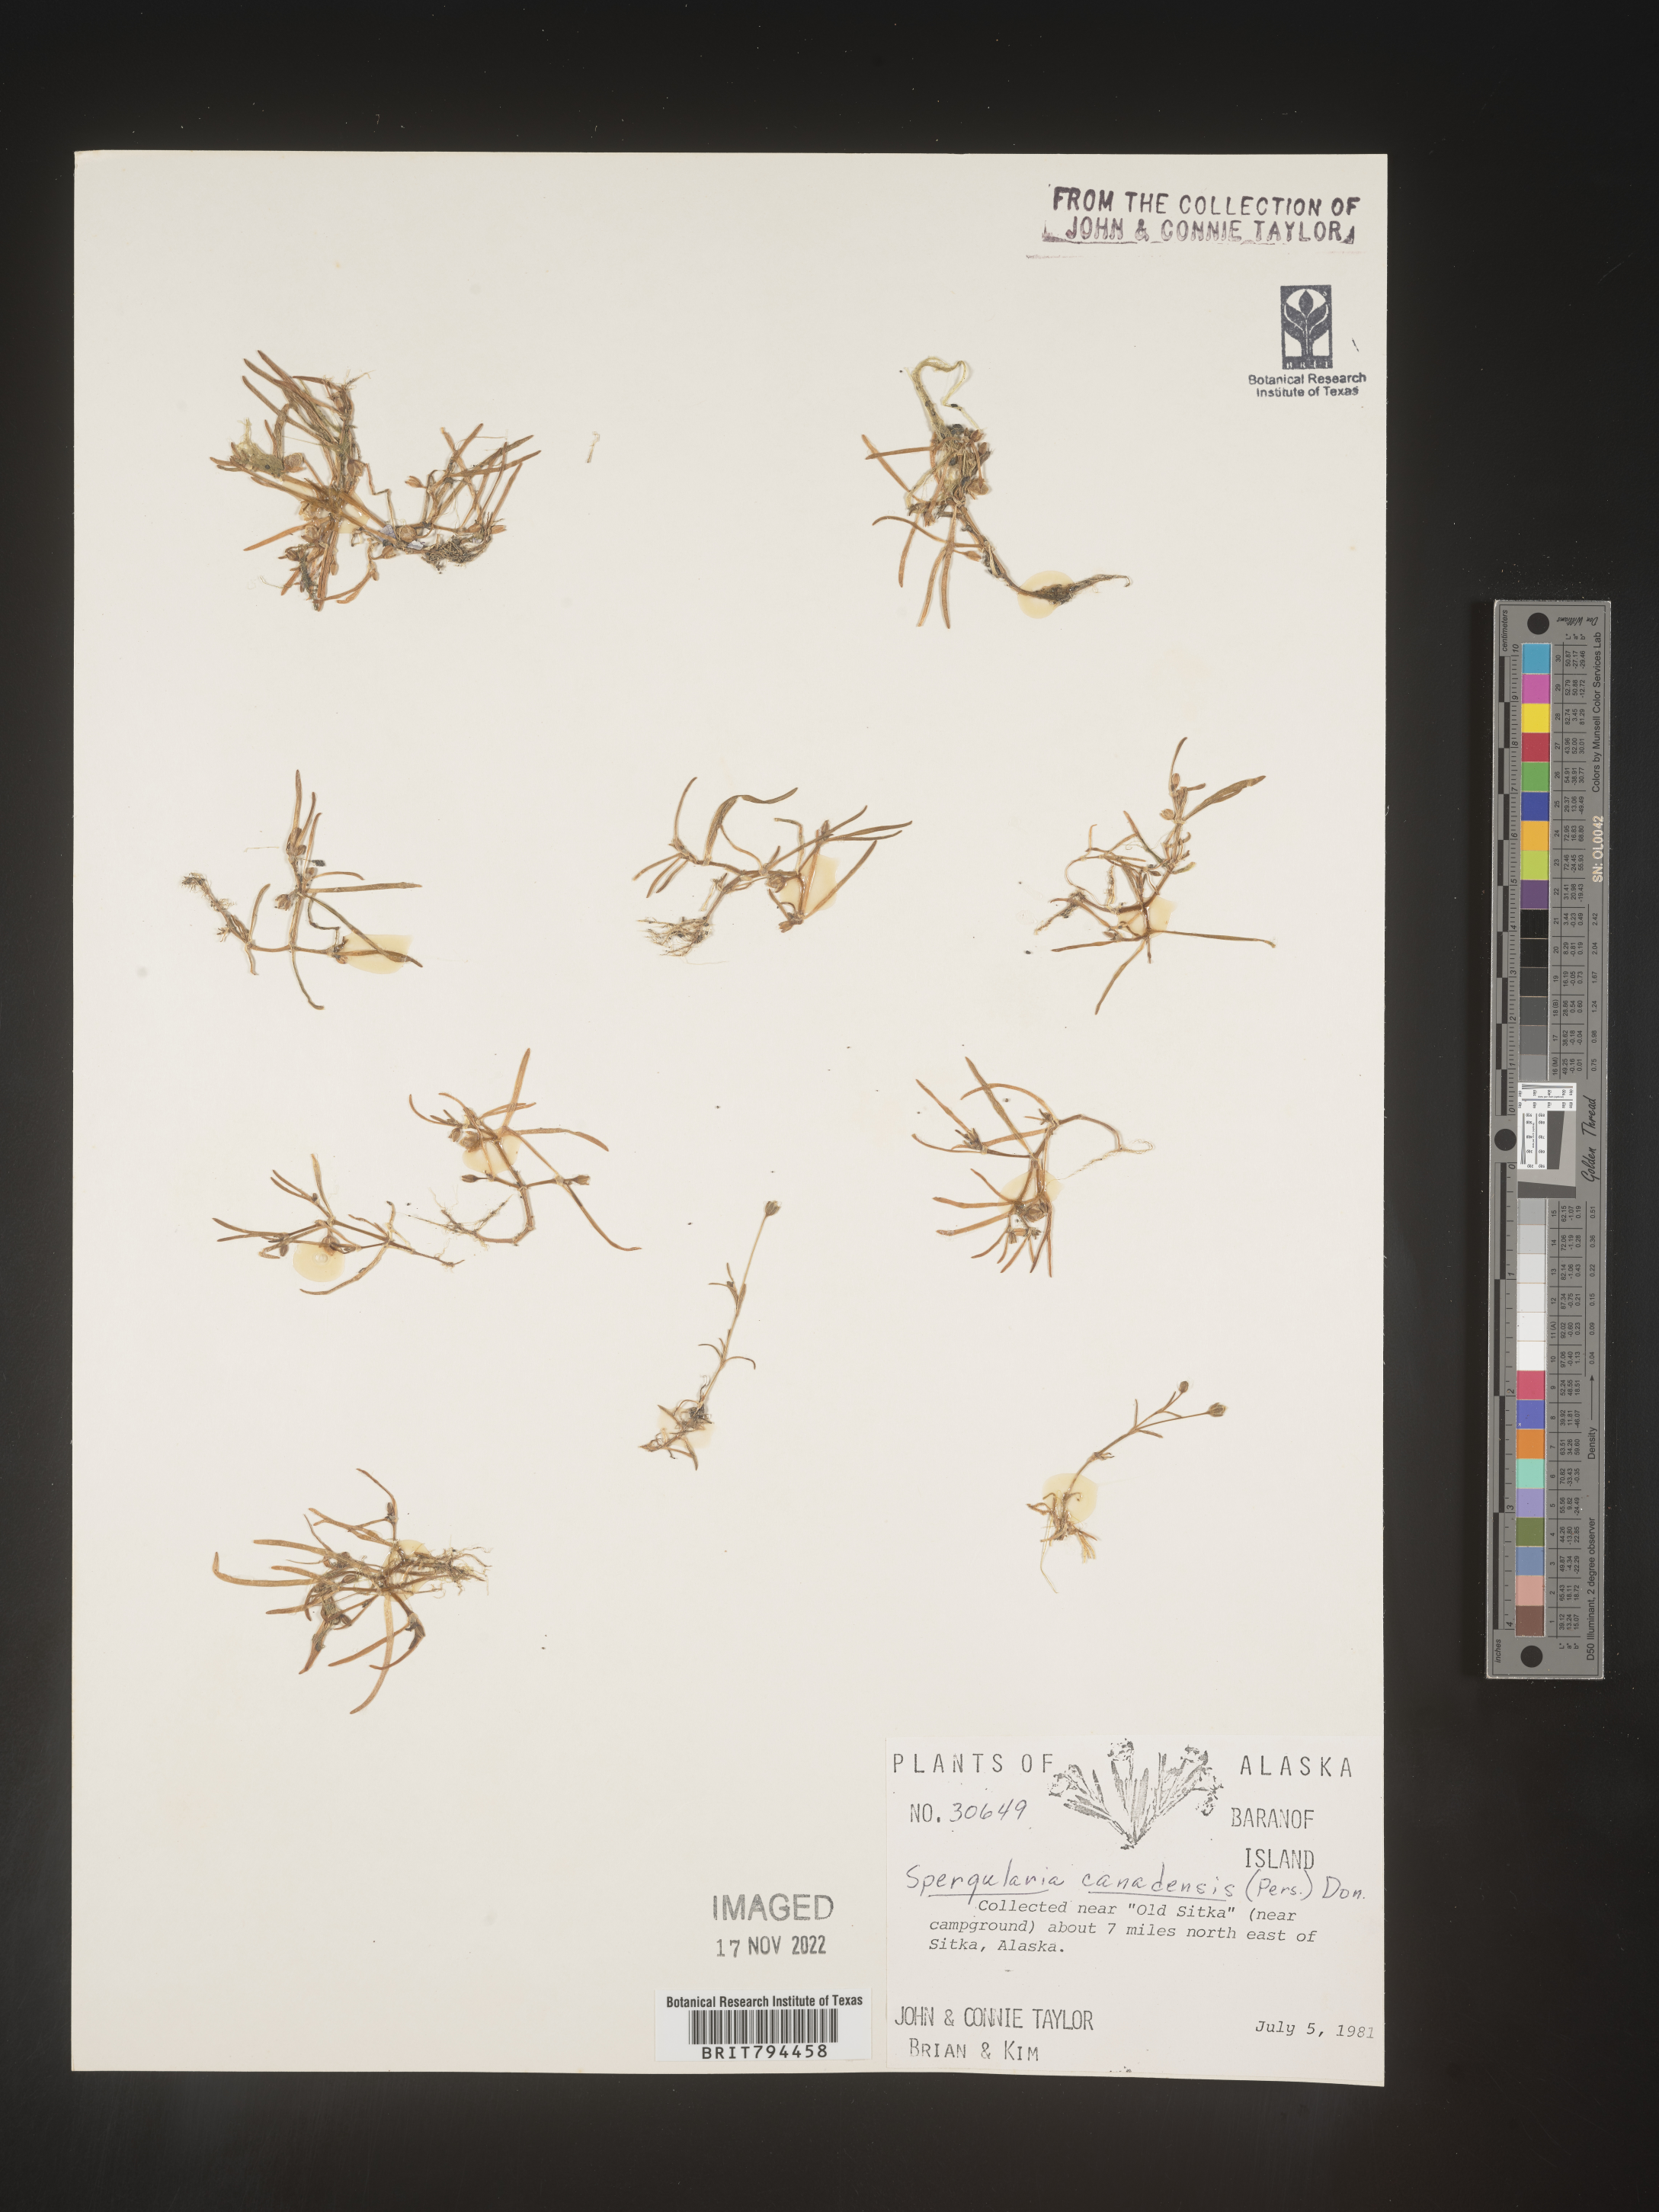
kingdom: Plantae
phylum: Tracheophyta
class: Magnoliopsida
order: Caryophyllales
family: Caryophyllaceae
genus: Spergularia
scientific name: Spergularia canadensis
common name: Canada sand-spurrey
